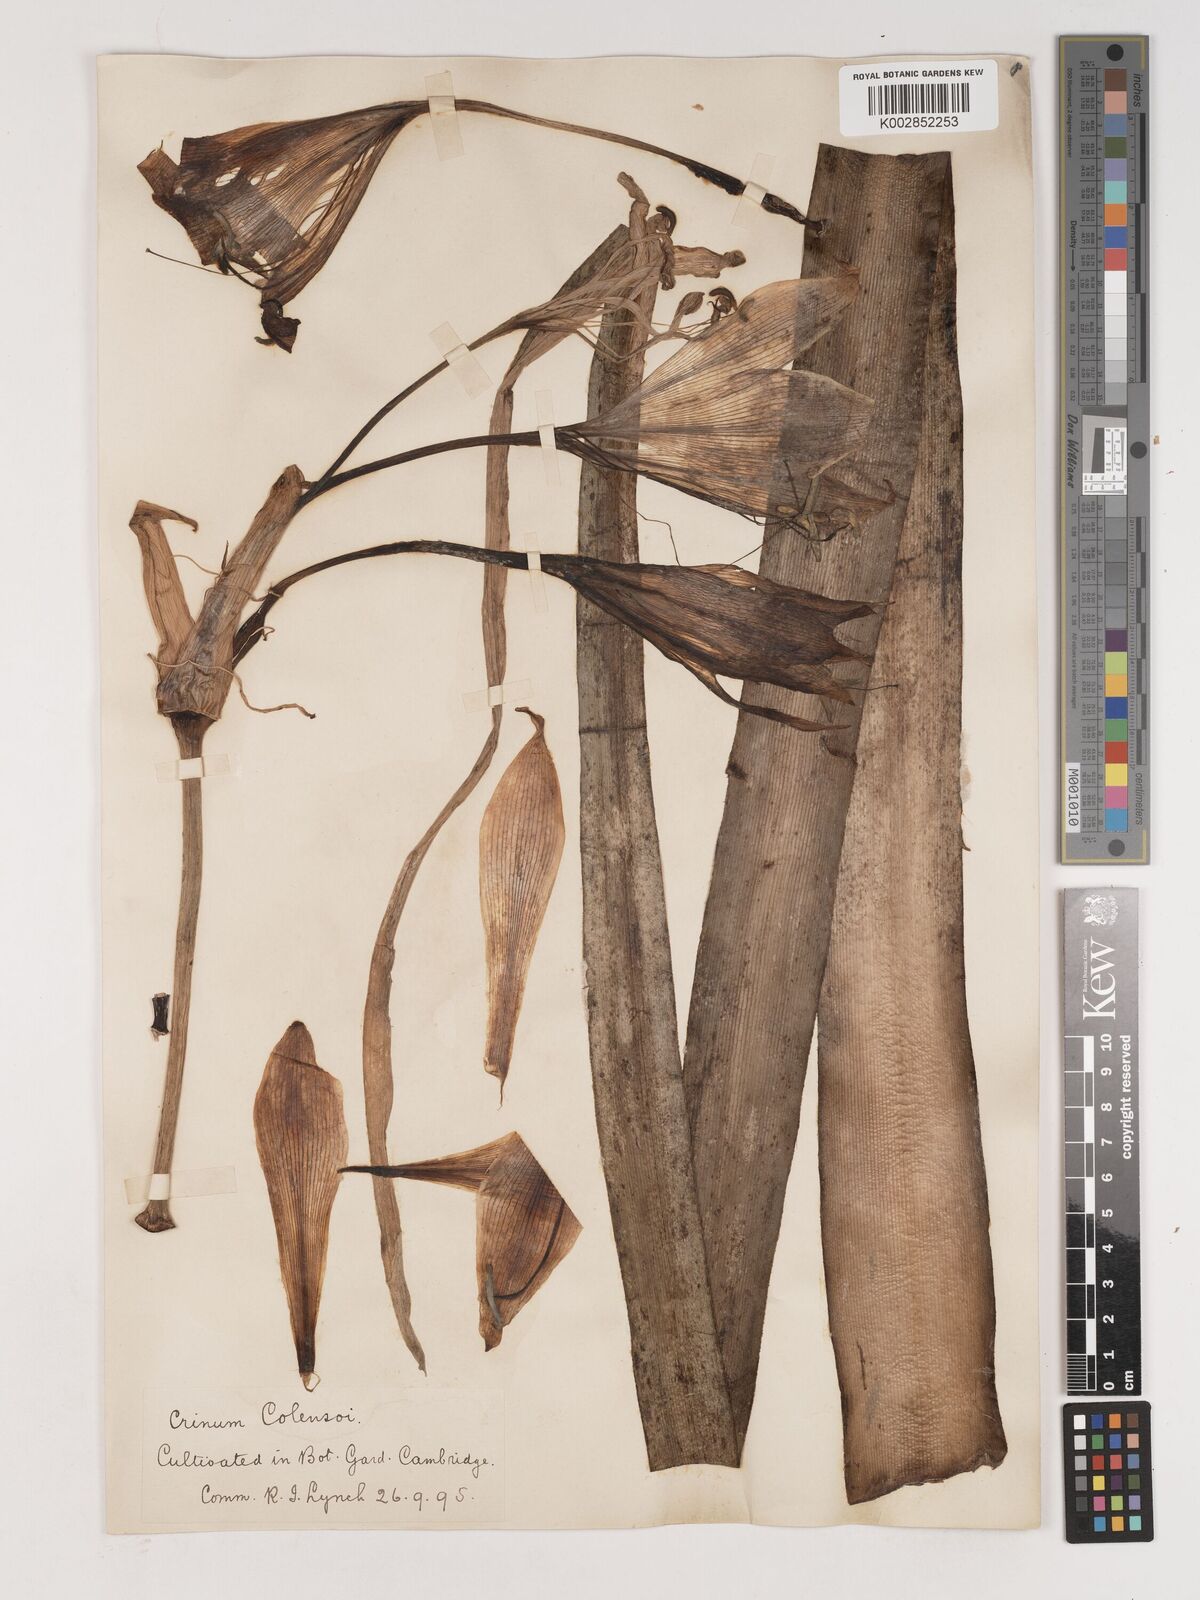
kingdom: Plantae
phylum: Tracheophyta
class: Liliopsida
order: Asparagales
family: Amaryllidaceae
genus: Crinum
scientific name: Crinum moorei
